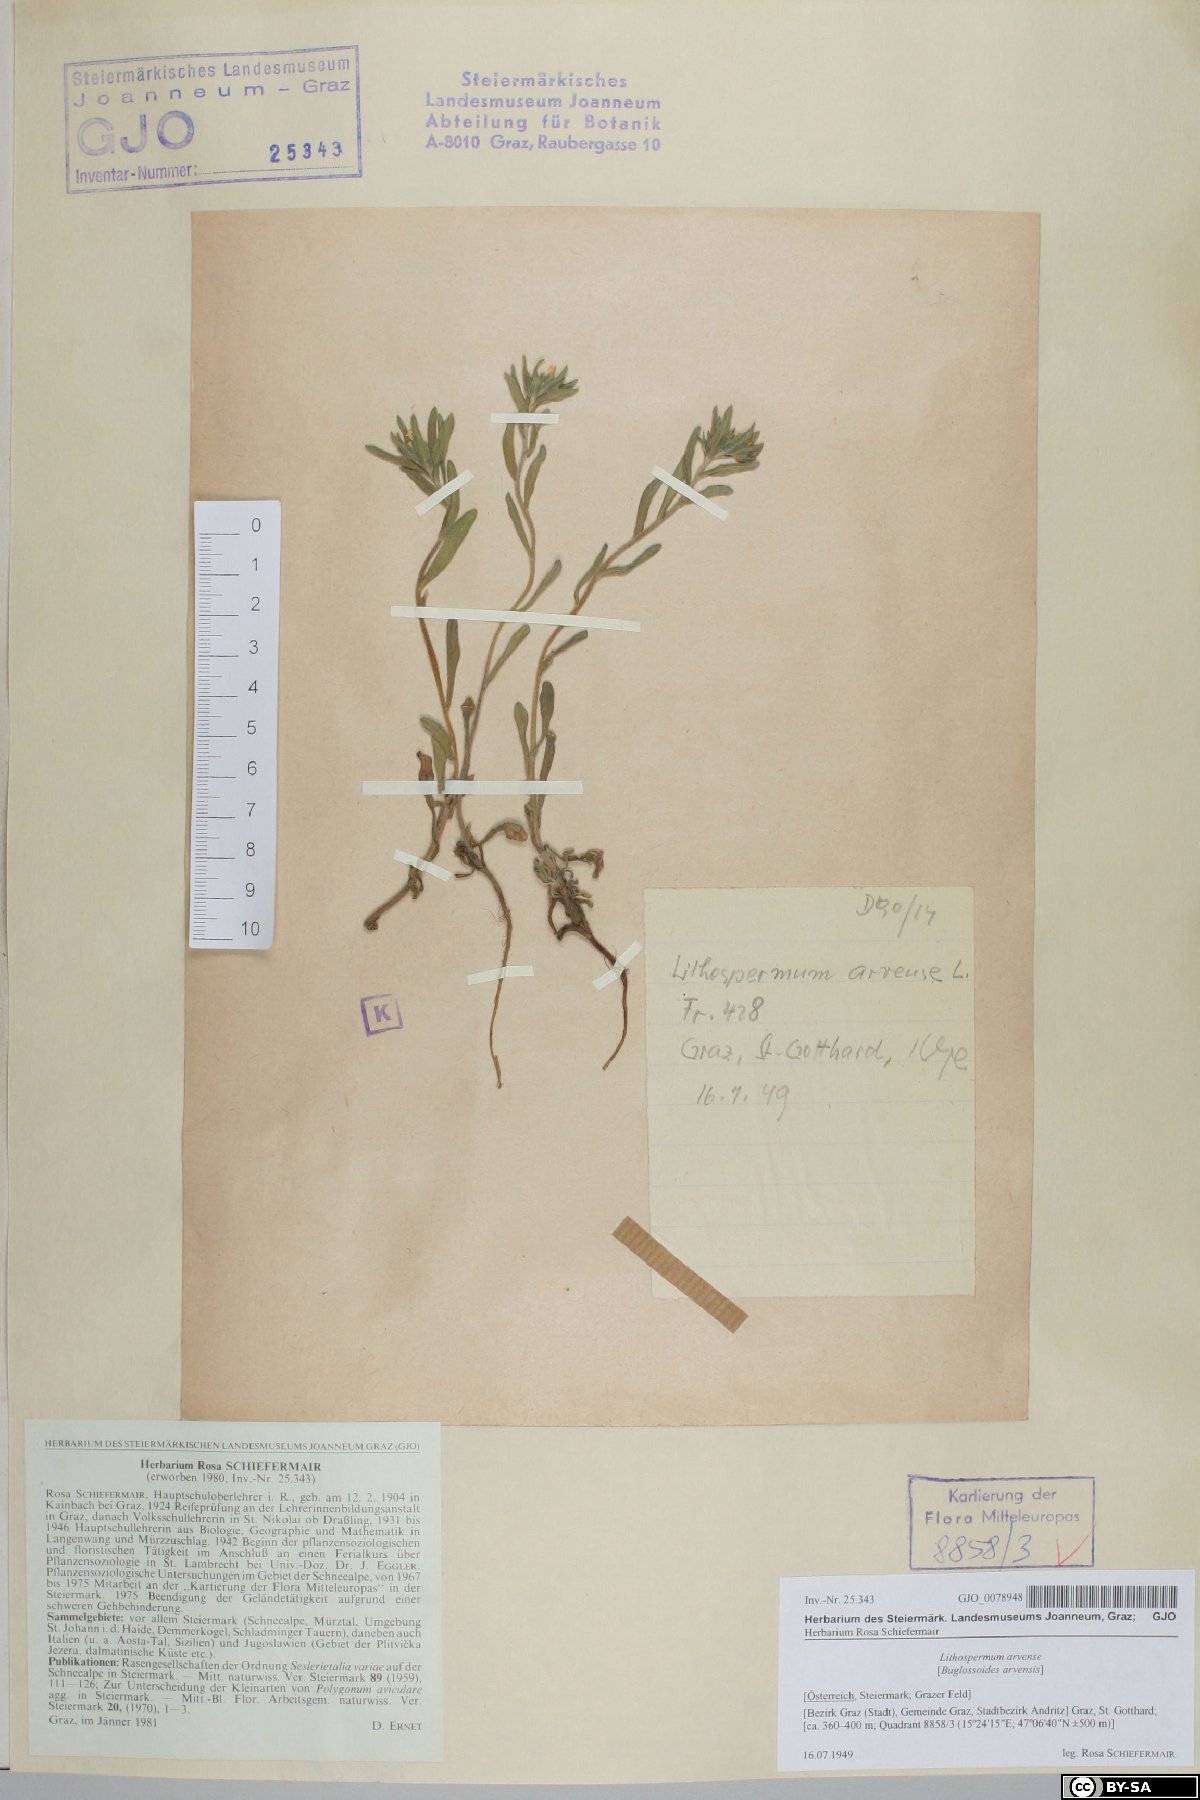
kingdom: Plantae
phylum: Tracheophyta
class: Magnoliopsida
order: Boraginales
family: Boraginaceae
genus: Buglossoides
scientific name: Buglossoides arvensis
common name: Corn gromwell
